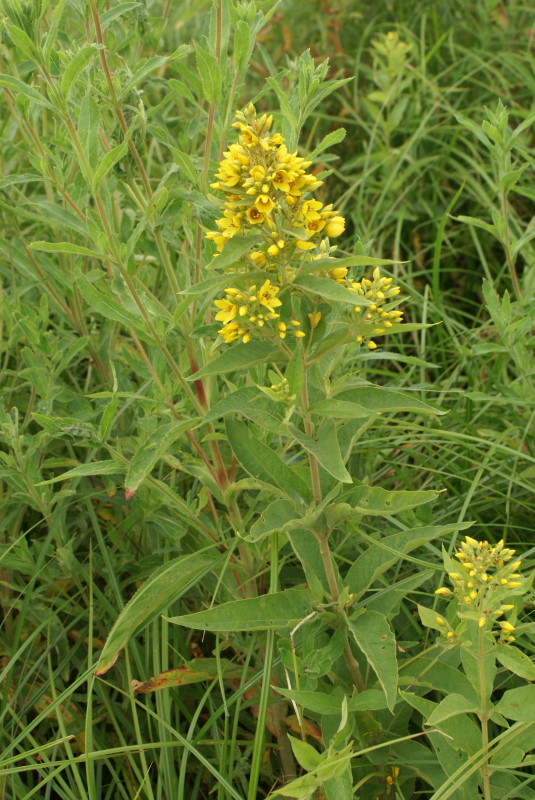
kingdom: Plantae
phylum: Tracheophyta
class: Magnoliopsida
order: Ericales
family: Primulaceae
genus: Lysimachia
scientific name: Lysimachia vulgaris
